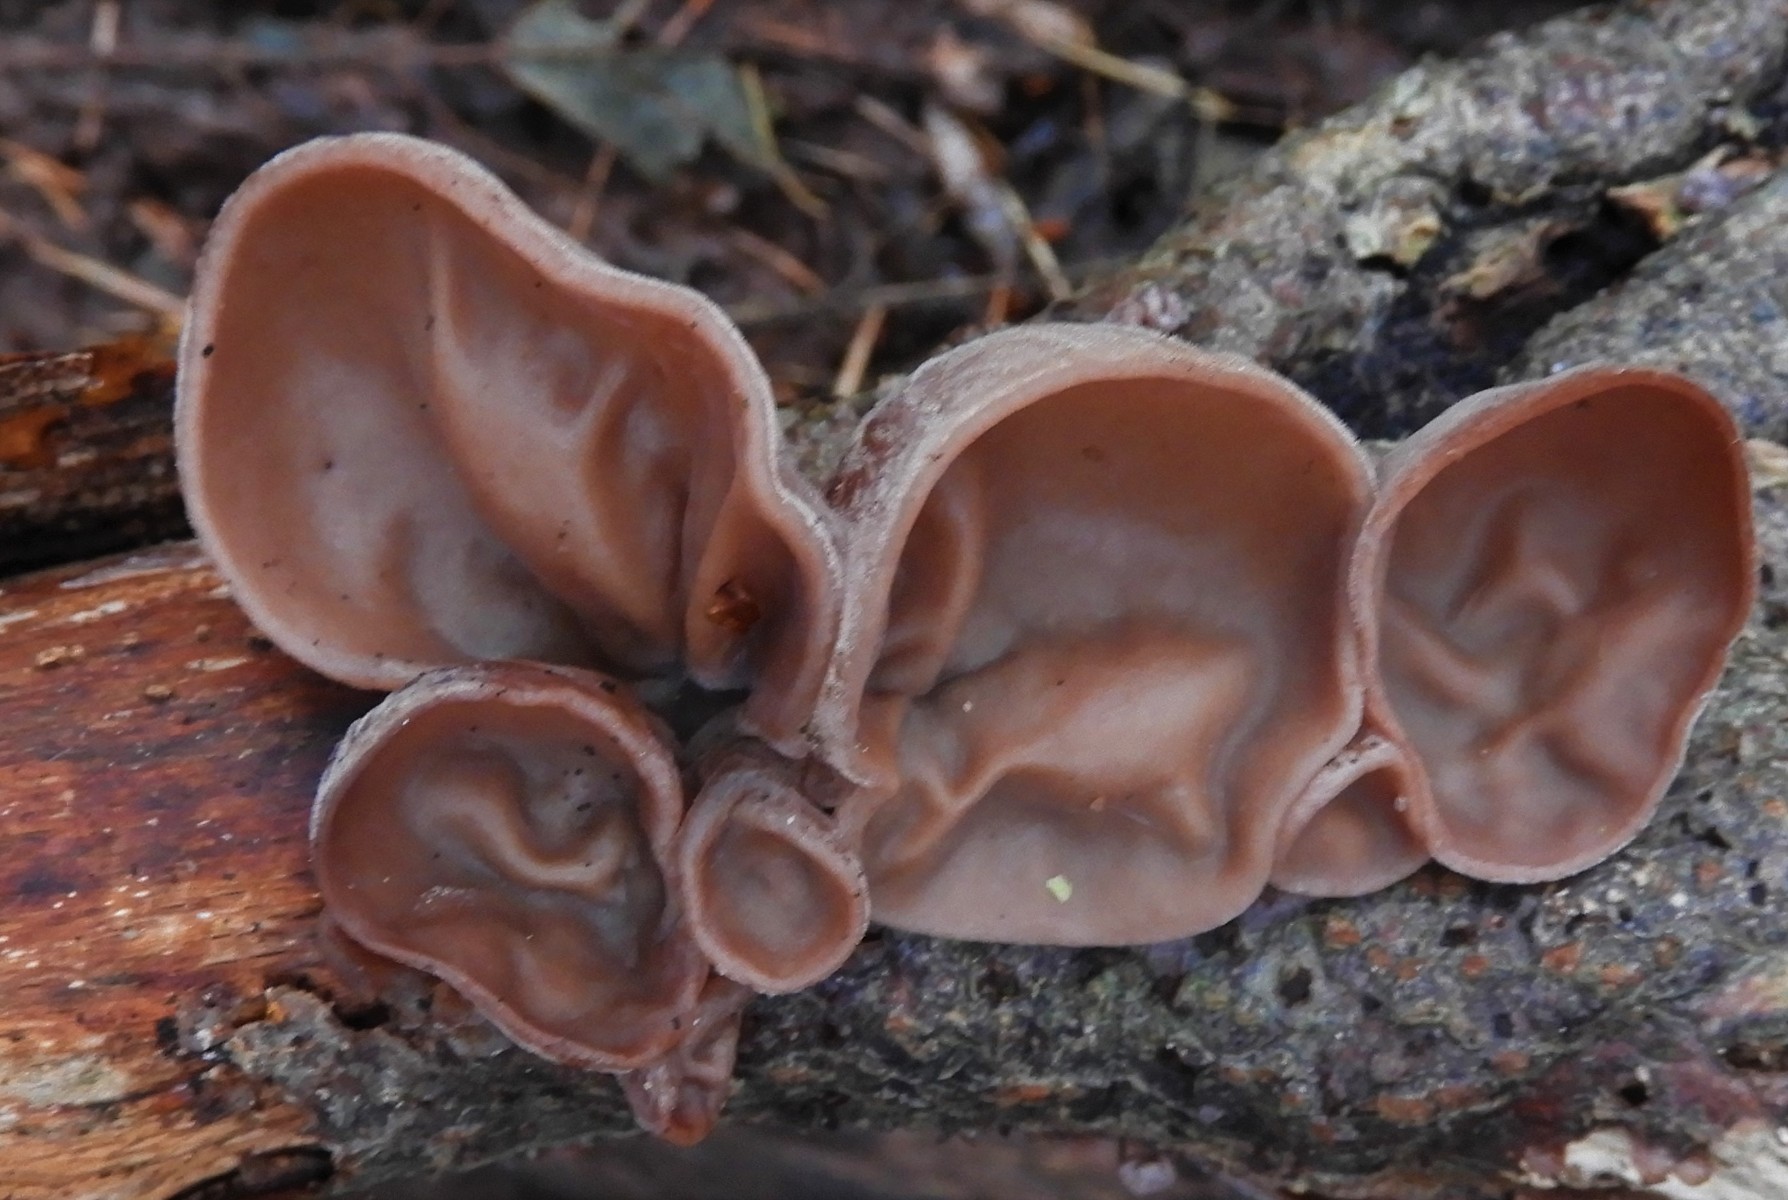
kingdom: Fungi
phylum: Basidiomycota
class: Agaricomycetes
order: Auriculariales
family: Auriculariaceae
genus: Auricularia
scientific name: Auricularia auricula-judae
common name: almindelig judasøre
